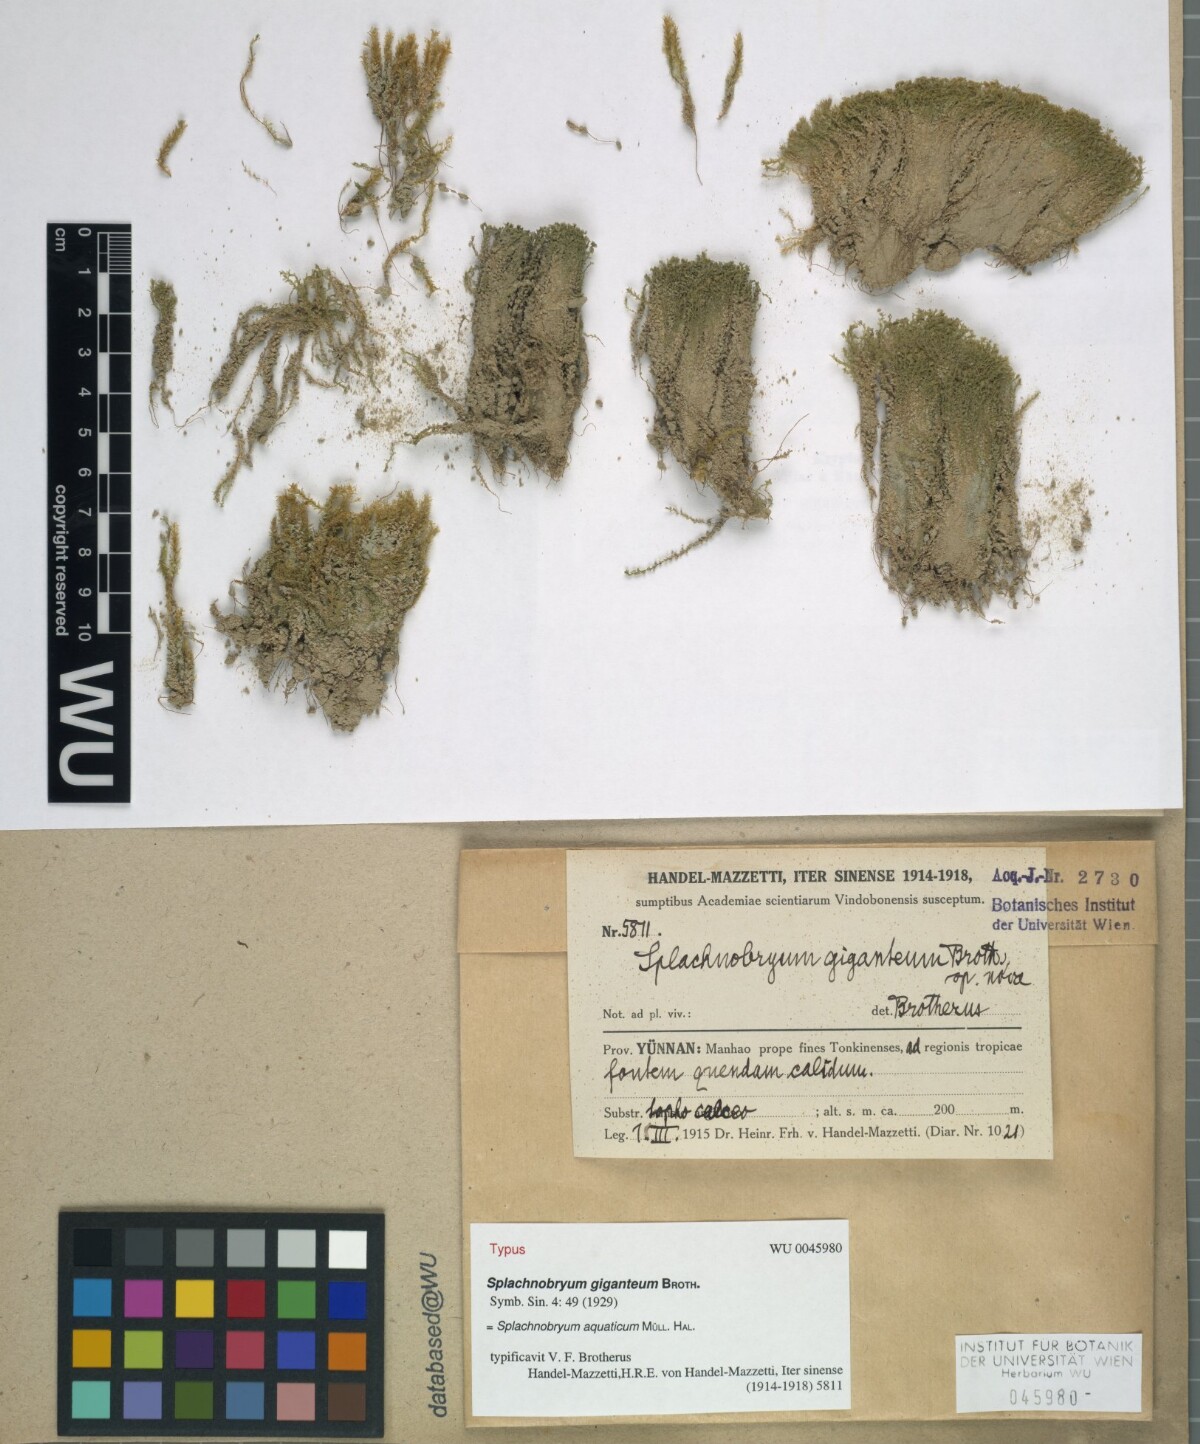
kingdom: Plantae
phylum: Bryophyta
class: Bryopsida
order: Pottiales
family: Splachnobryaceae
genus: Splachnobryum
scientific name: Splachnobryum aquaticum
